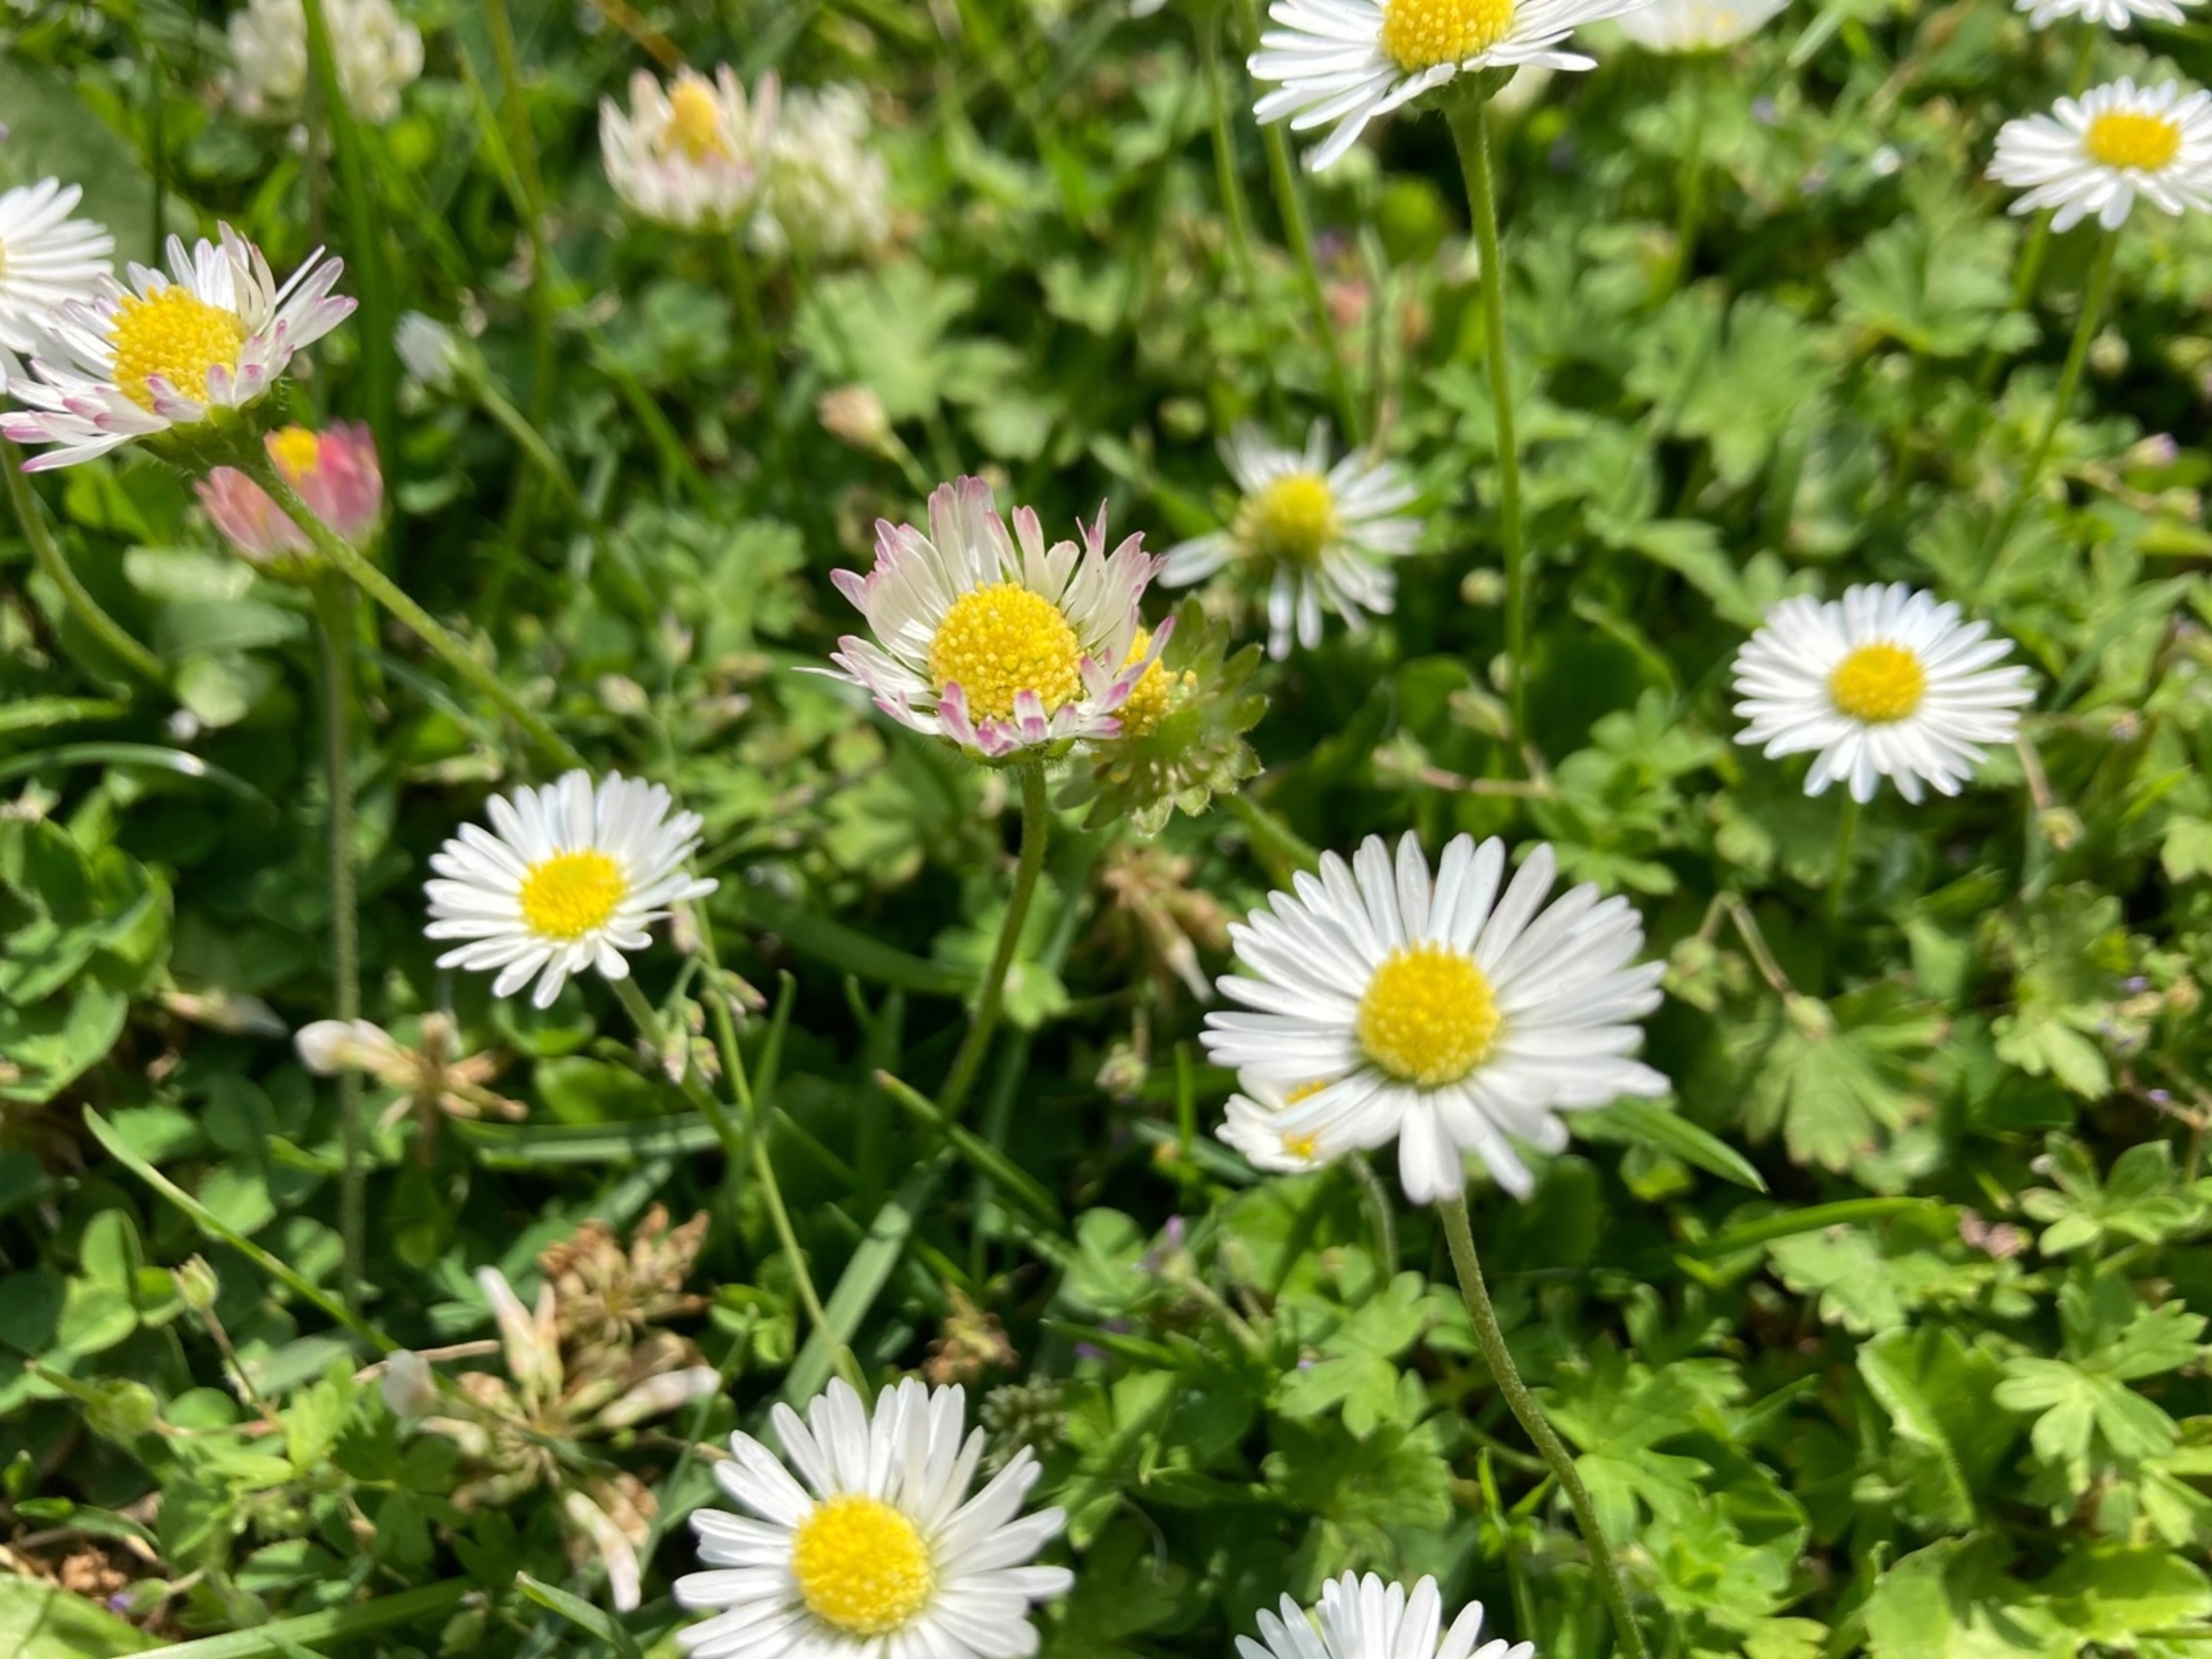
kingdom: Plantae
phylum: Tracheophyta
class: Magnoliopsida
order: Asterales
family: Asteraceae
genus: Bellis
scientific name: Bellis perennis
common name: Tusindfryd
